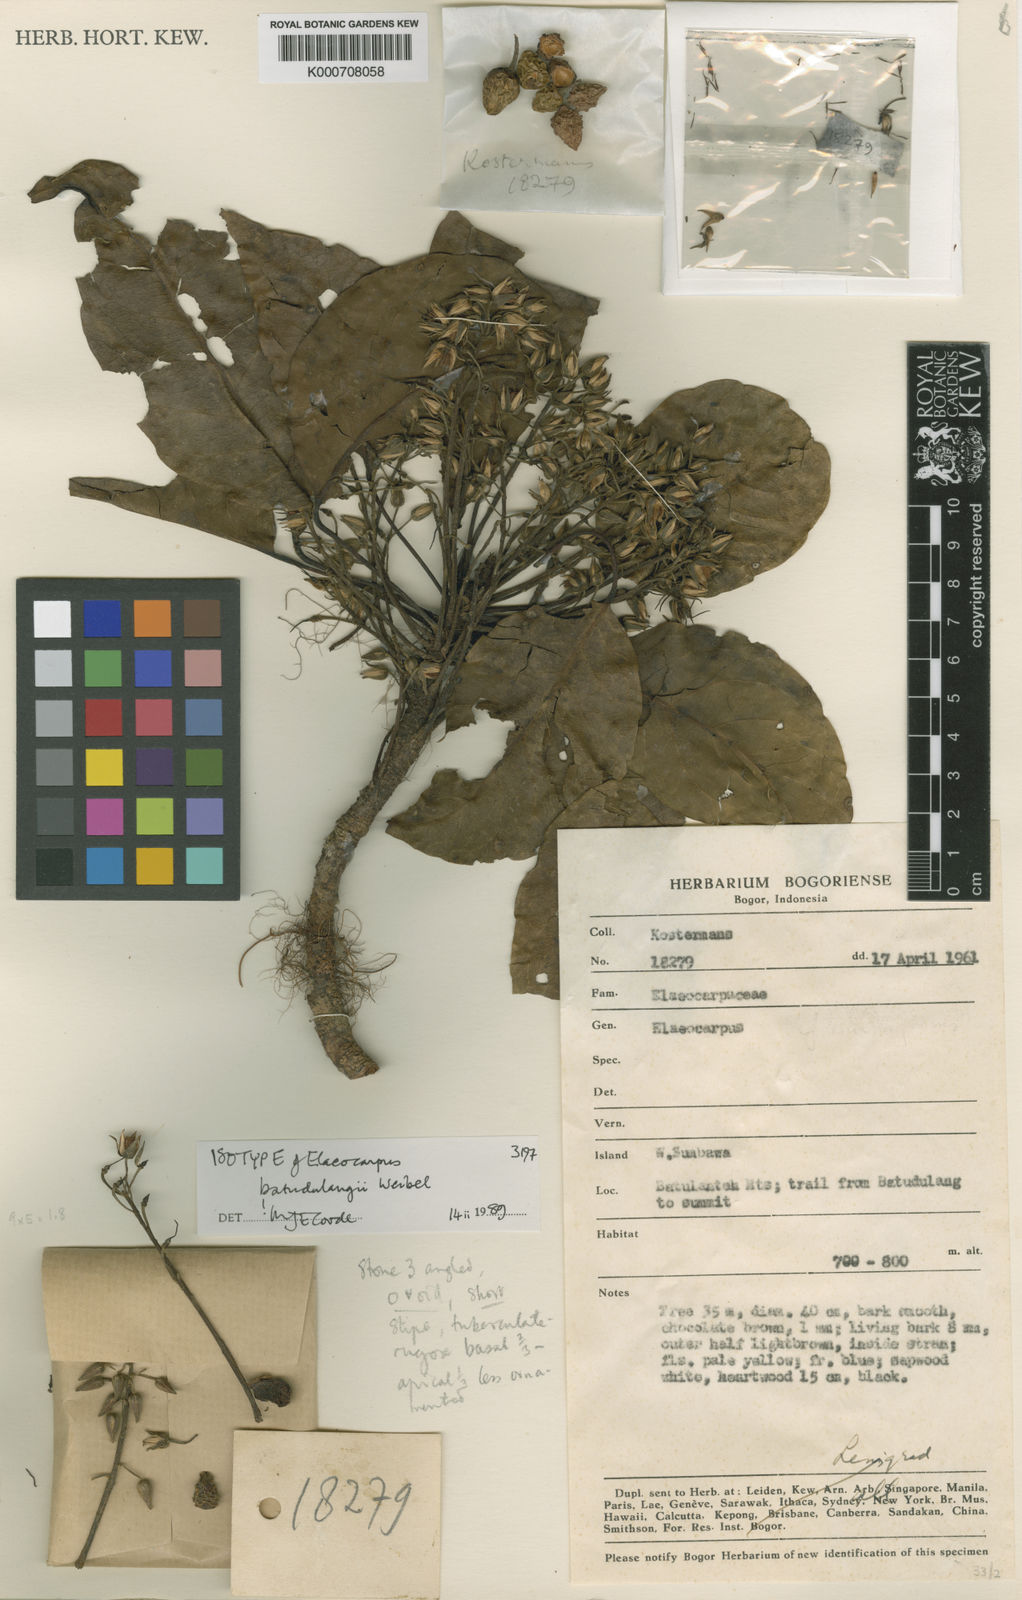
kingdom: Plantae
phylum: Tracheophyta
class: Magnoliopsida
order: Oxalidales
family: Elaeocarpaceae
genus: Elaeocarpus
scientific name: Elaeocarpus batudulangii
